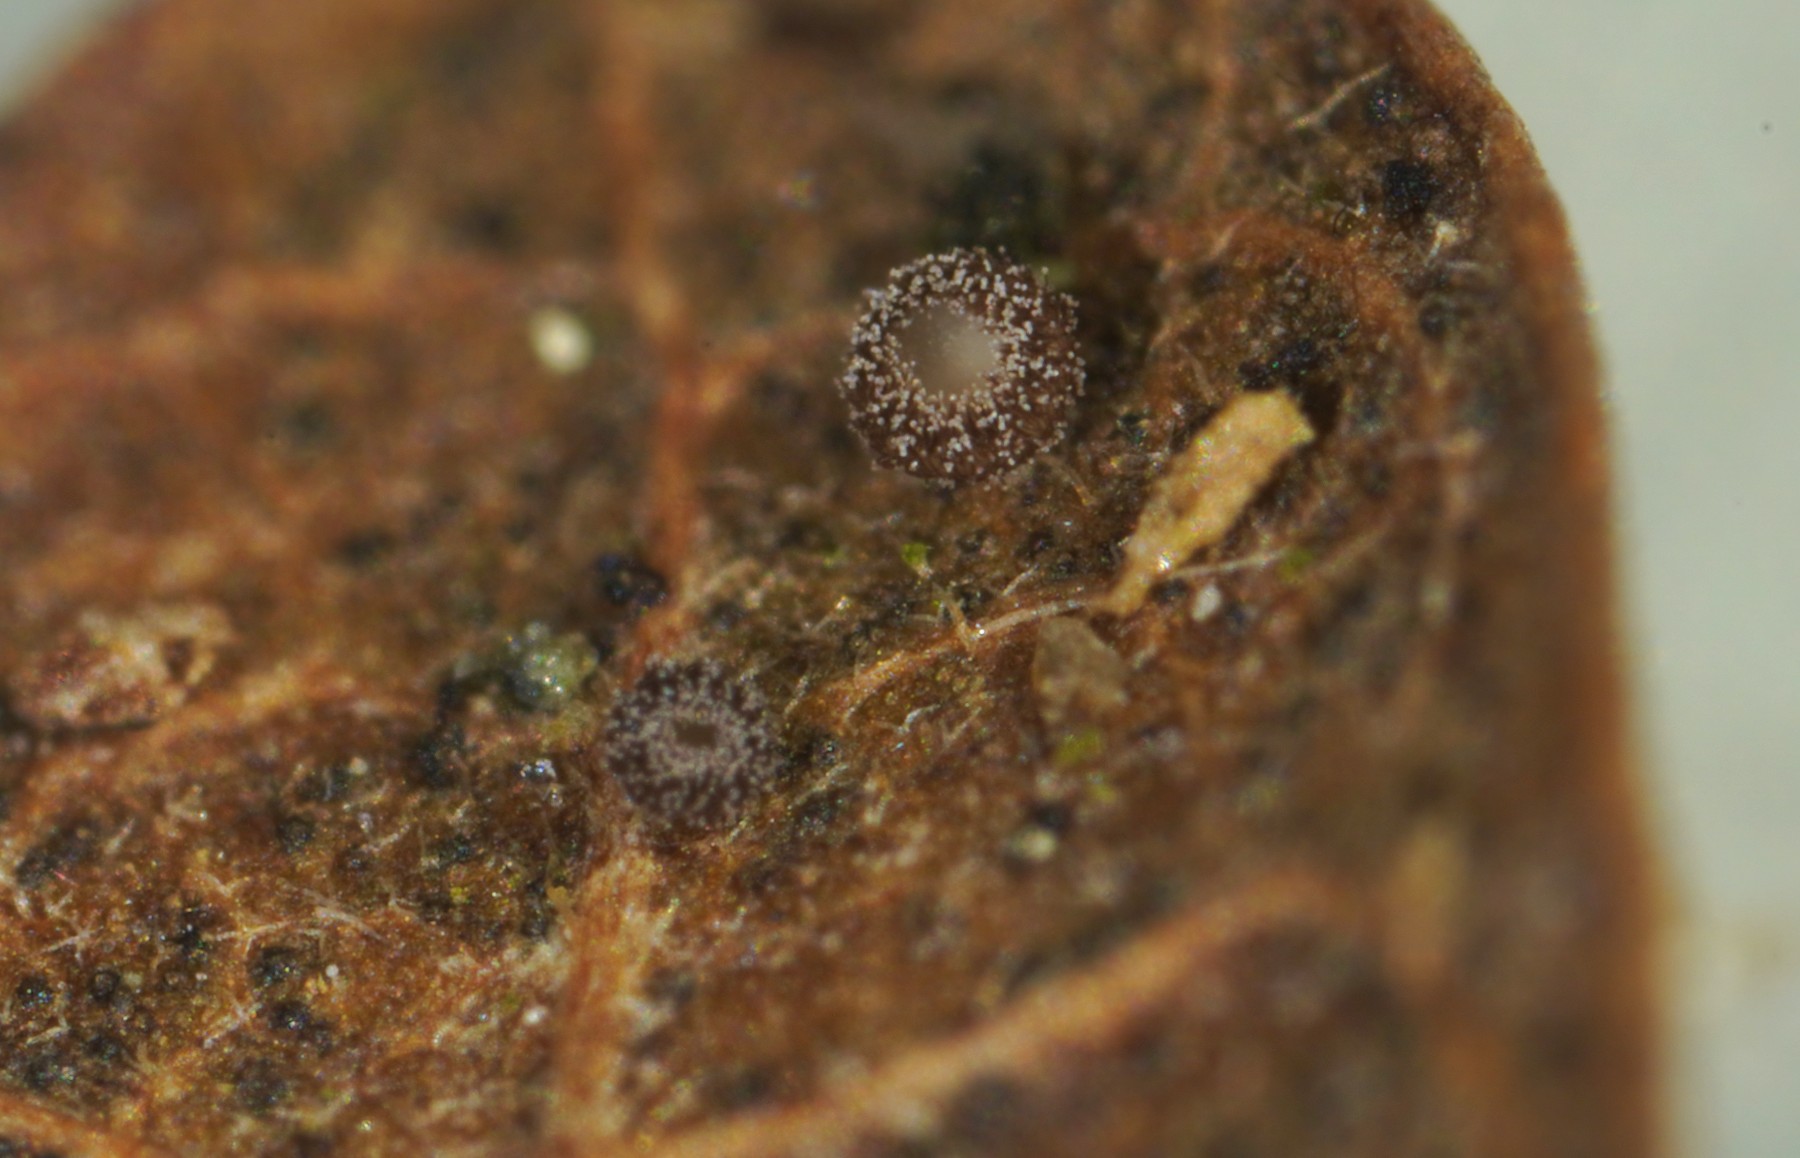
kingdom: Fungi
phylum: Ascomycota
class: Leotiomycetes
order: Helotiales
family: Lachnaceae
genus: Brunnipila
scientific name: Brunnipila brunneola
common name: læderbrun frynseskive
